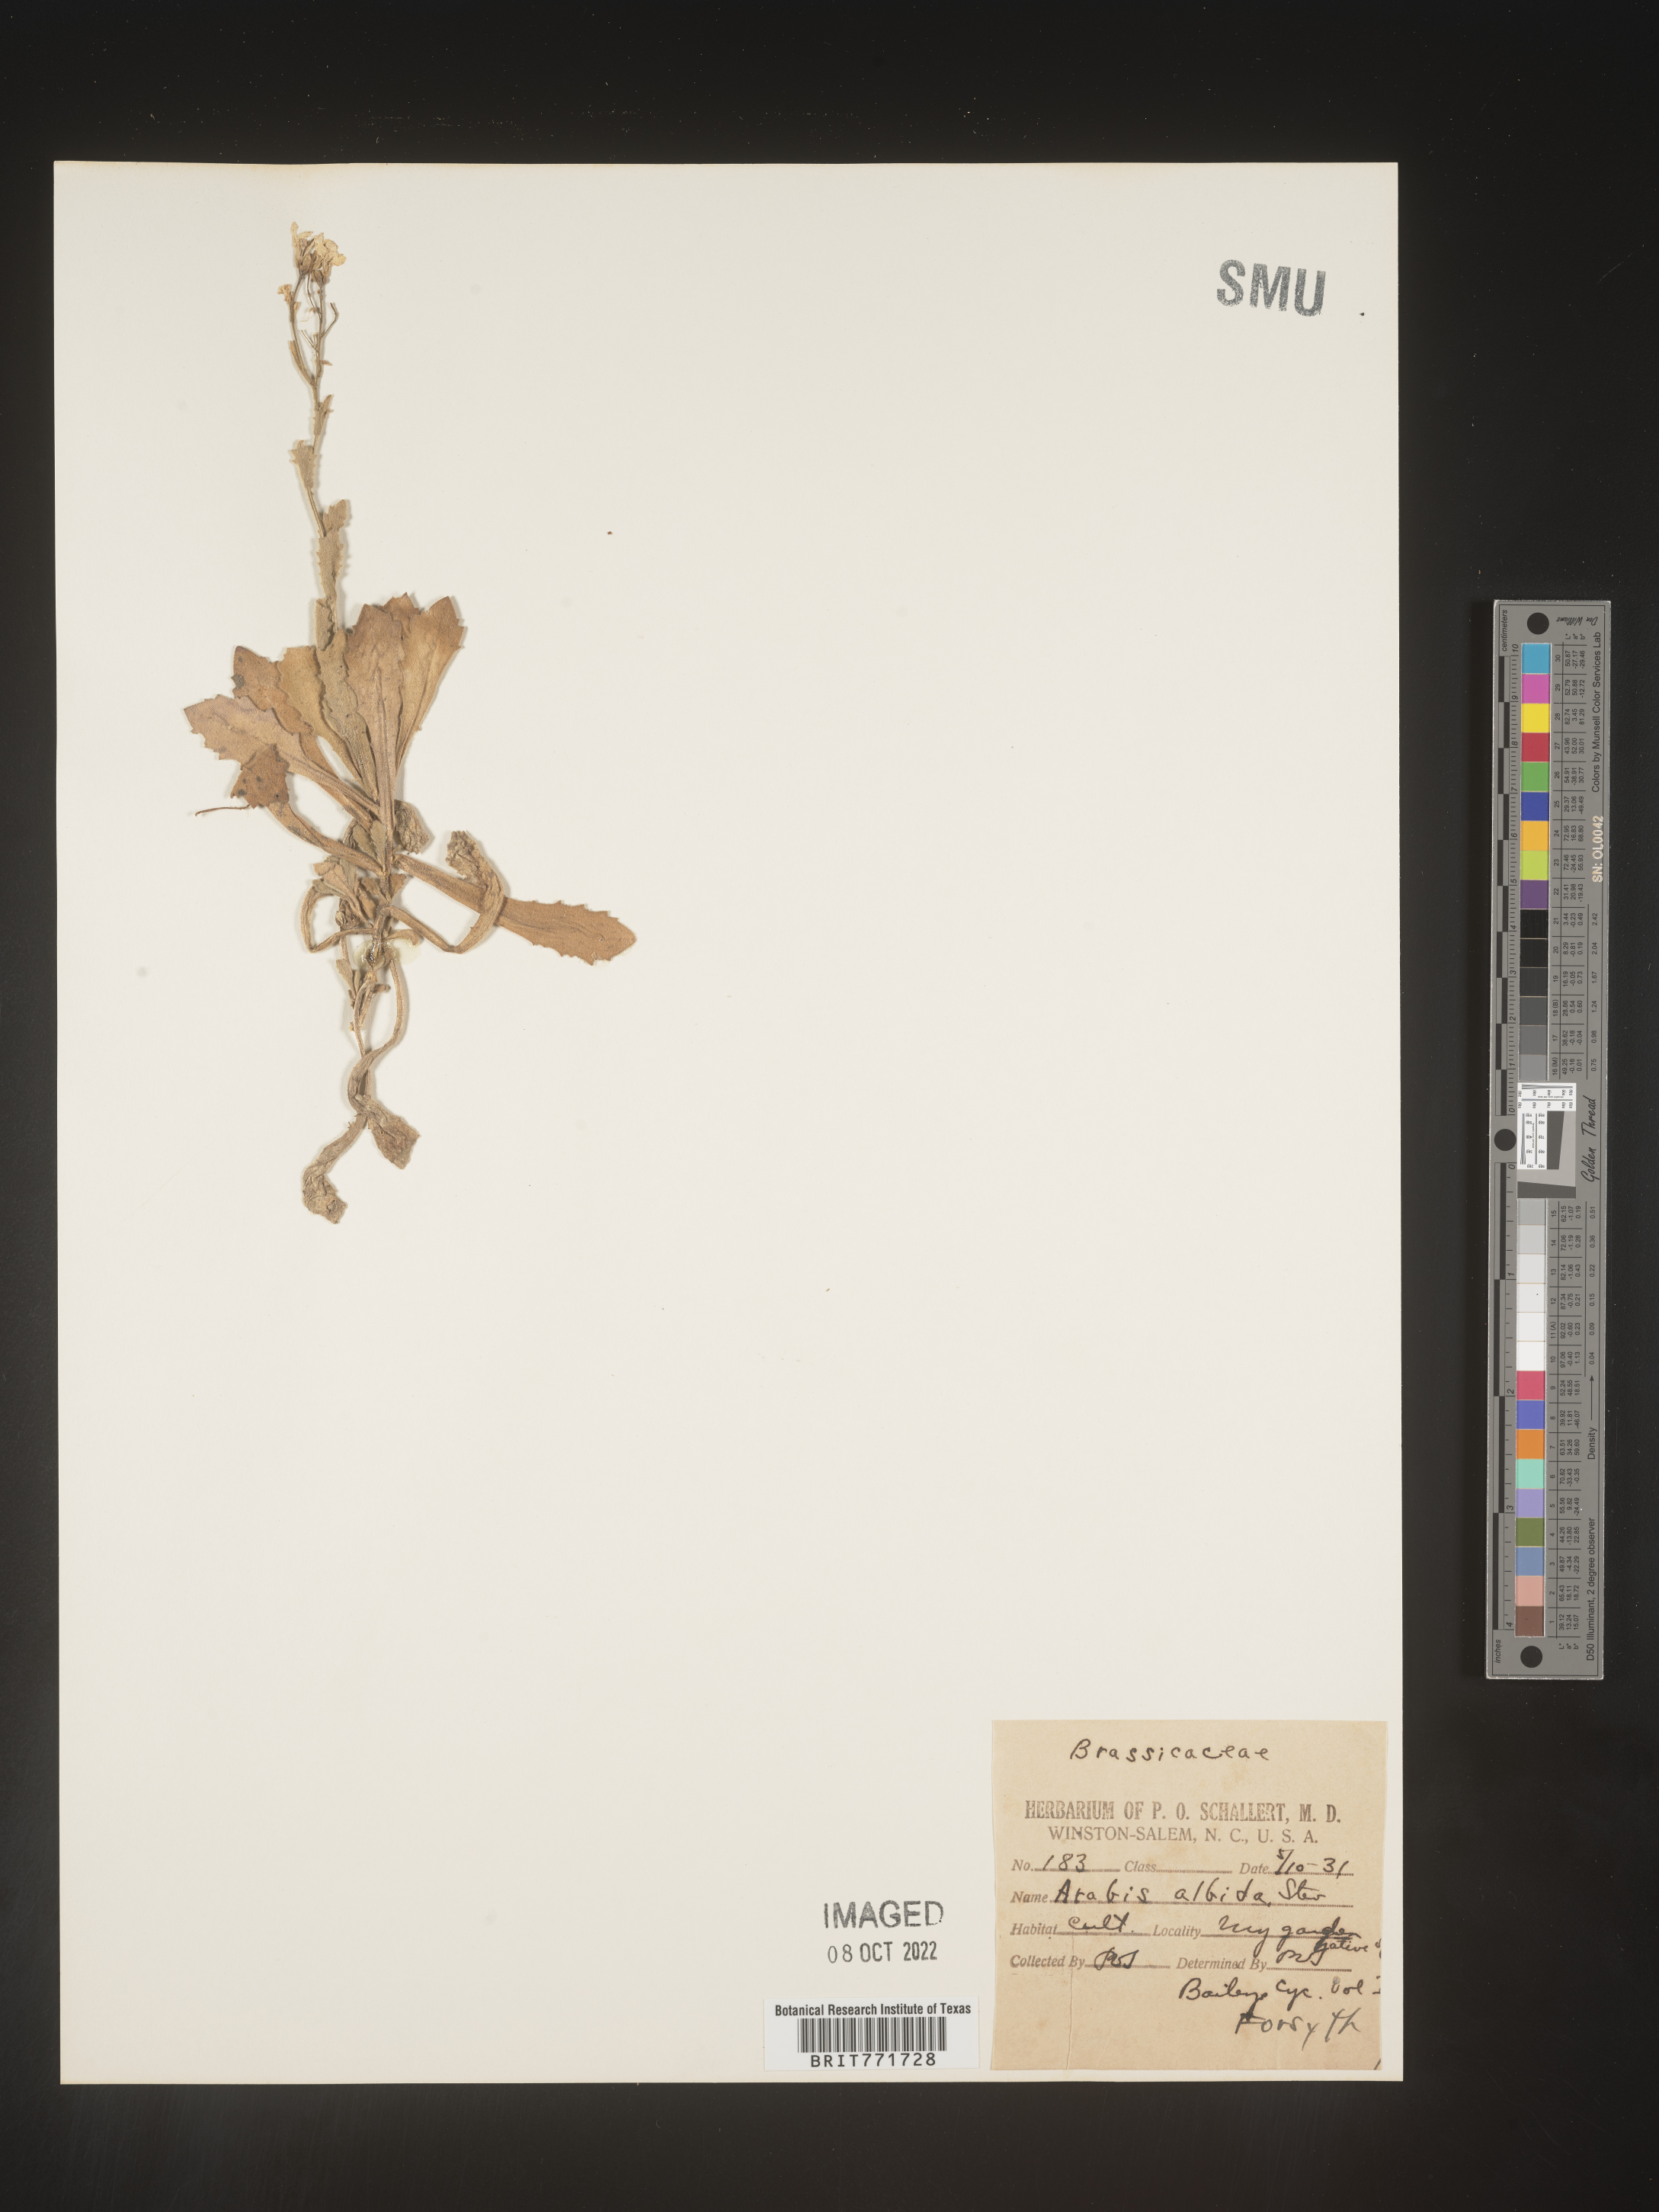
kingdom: Plantae
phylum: Tracheophyta
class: Magnoliopsida
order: Brassicales
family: Brassicaceae
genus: Arabis
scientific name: Arabis
